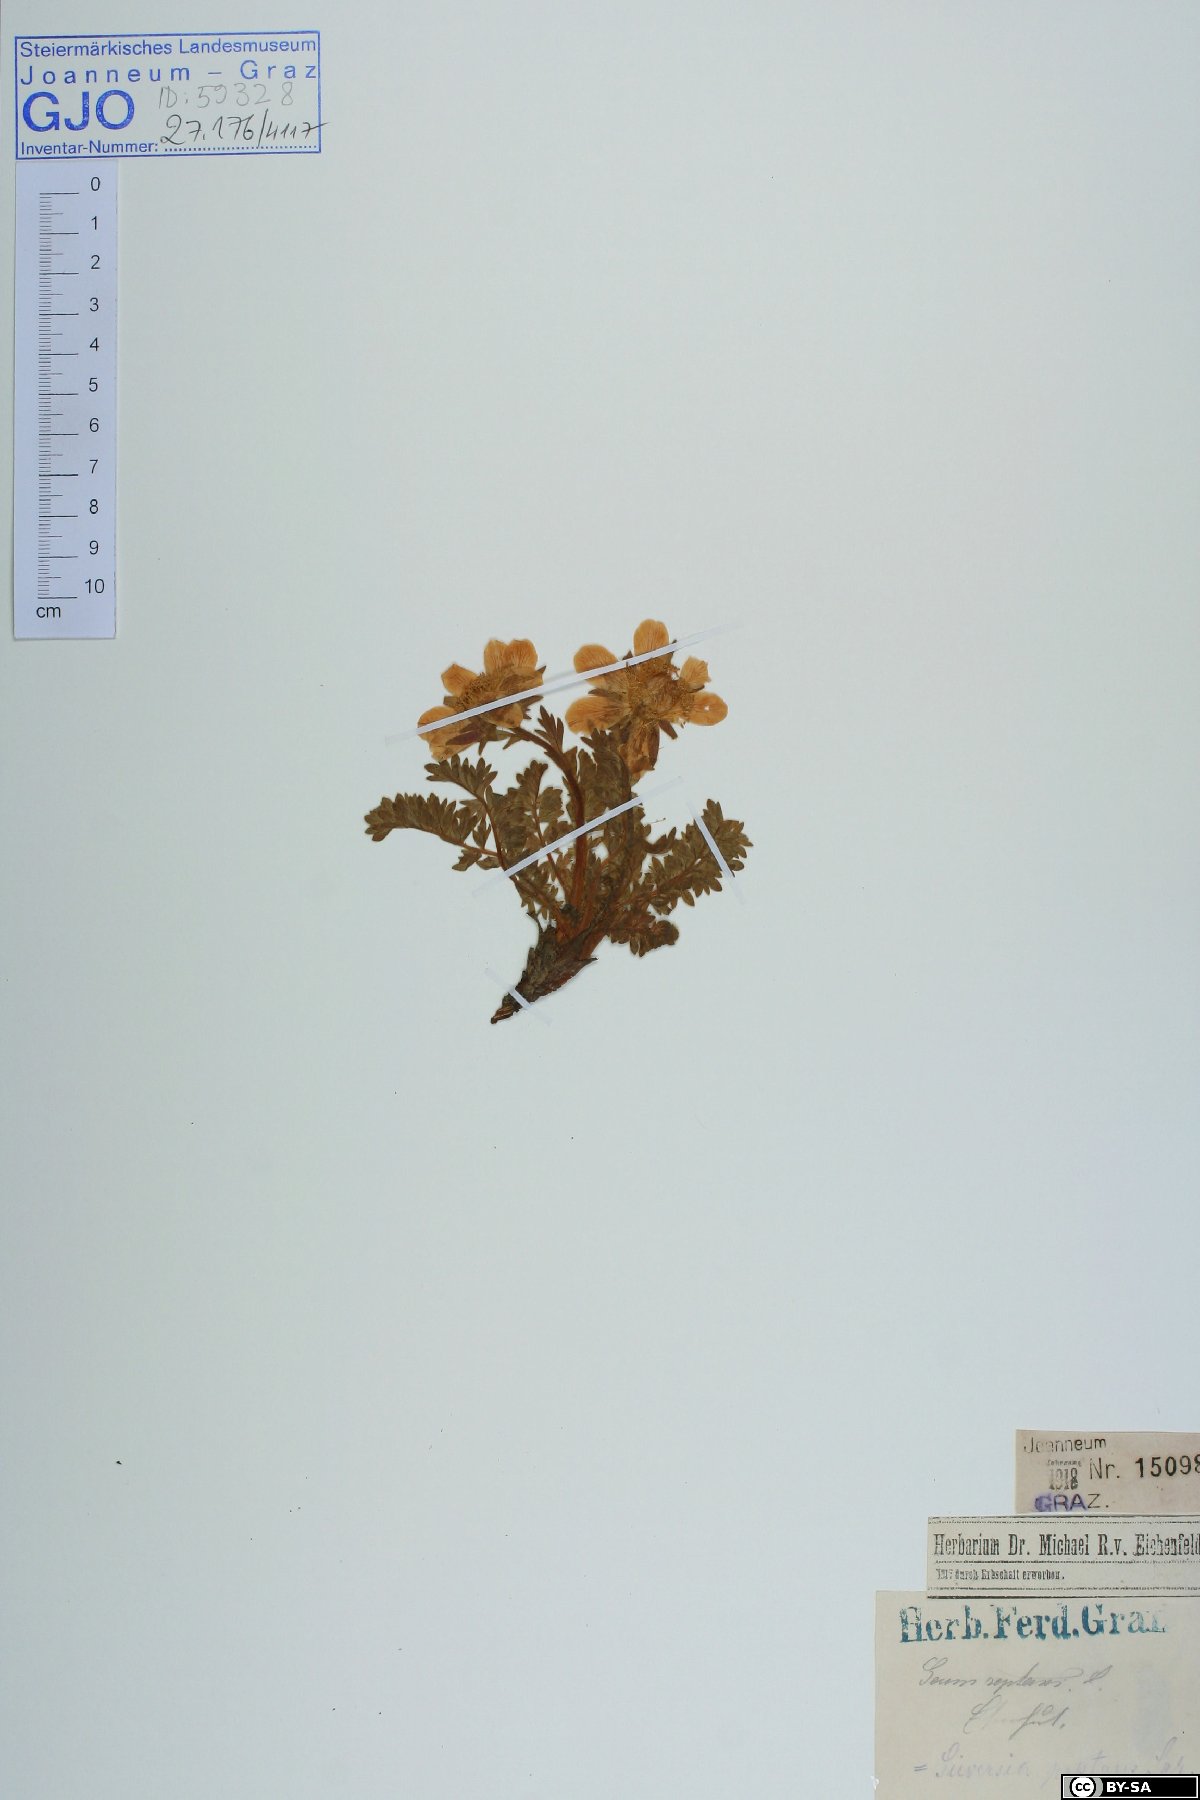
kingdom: Plantae
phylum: Tracheophyta
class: Magnoliopsida
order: Rosales
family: Rosaceae
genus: Geum
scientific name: Geum reptans
